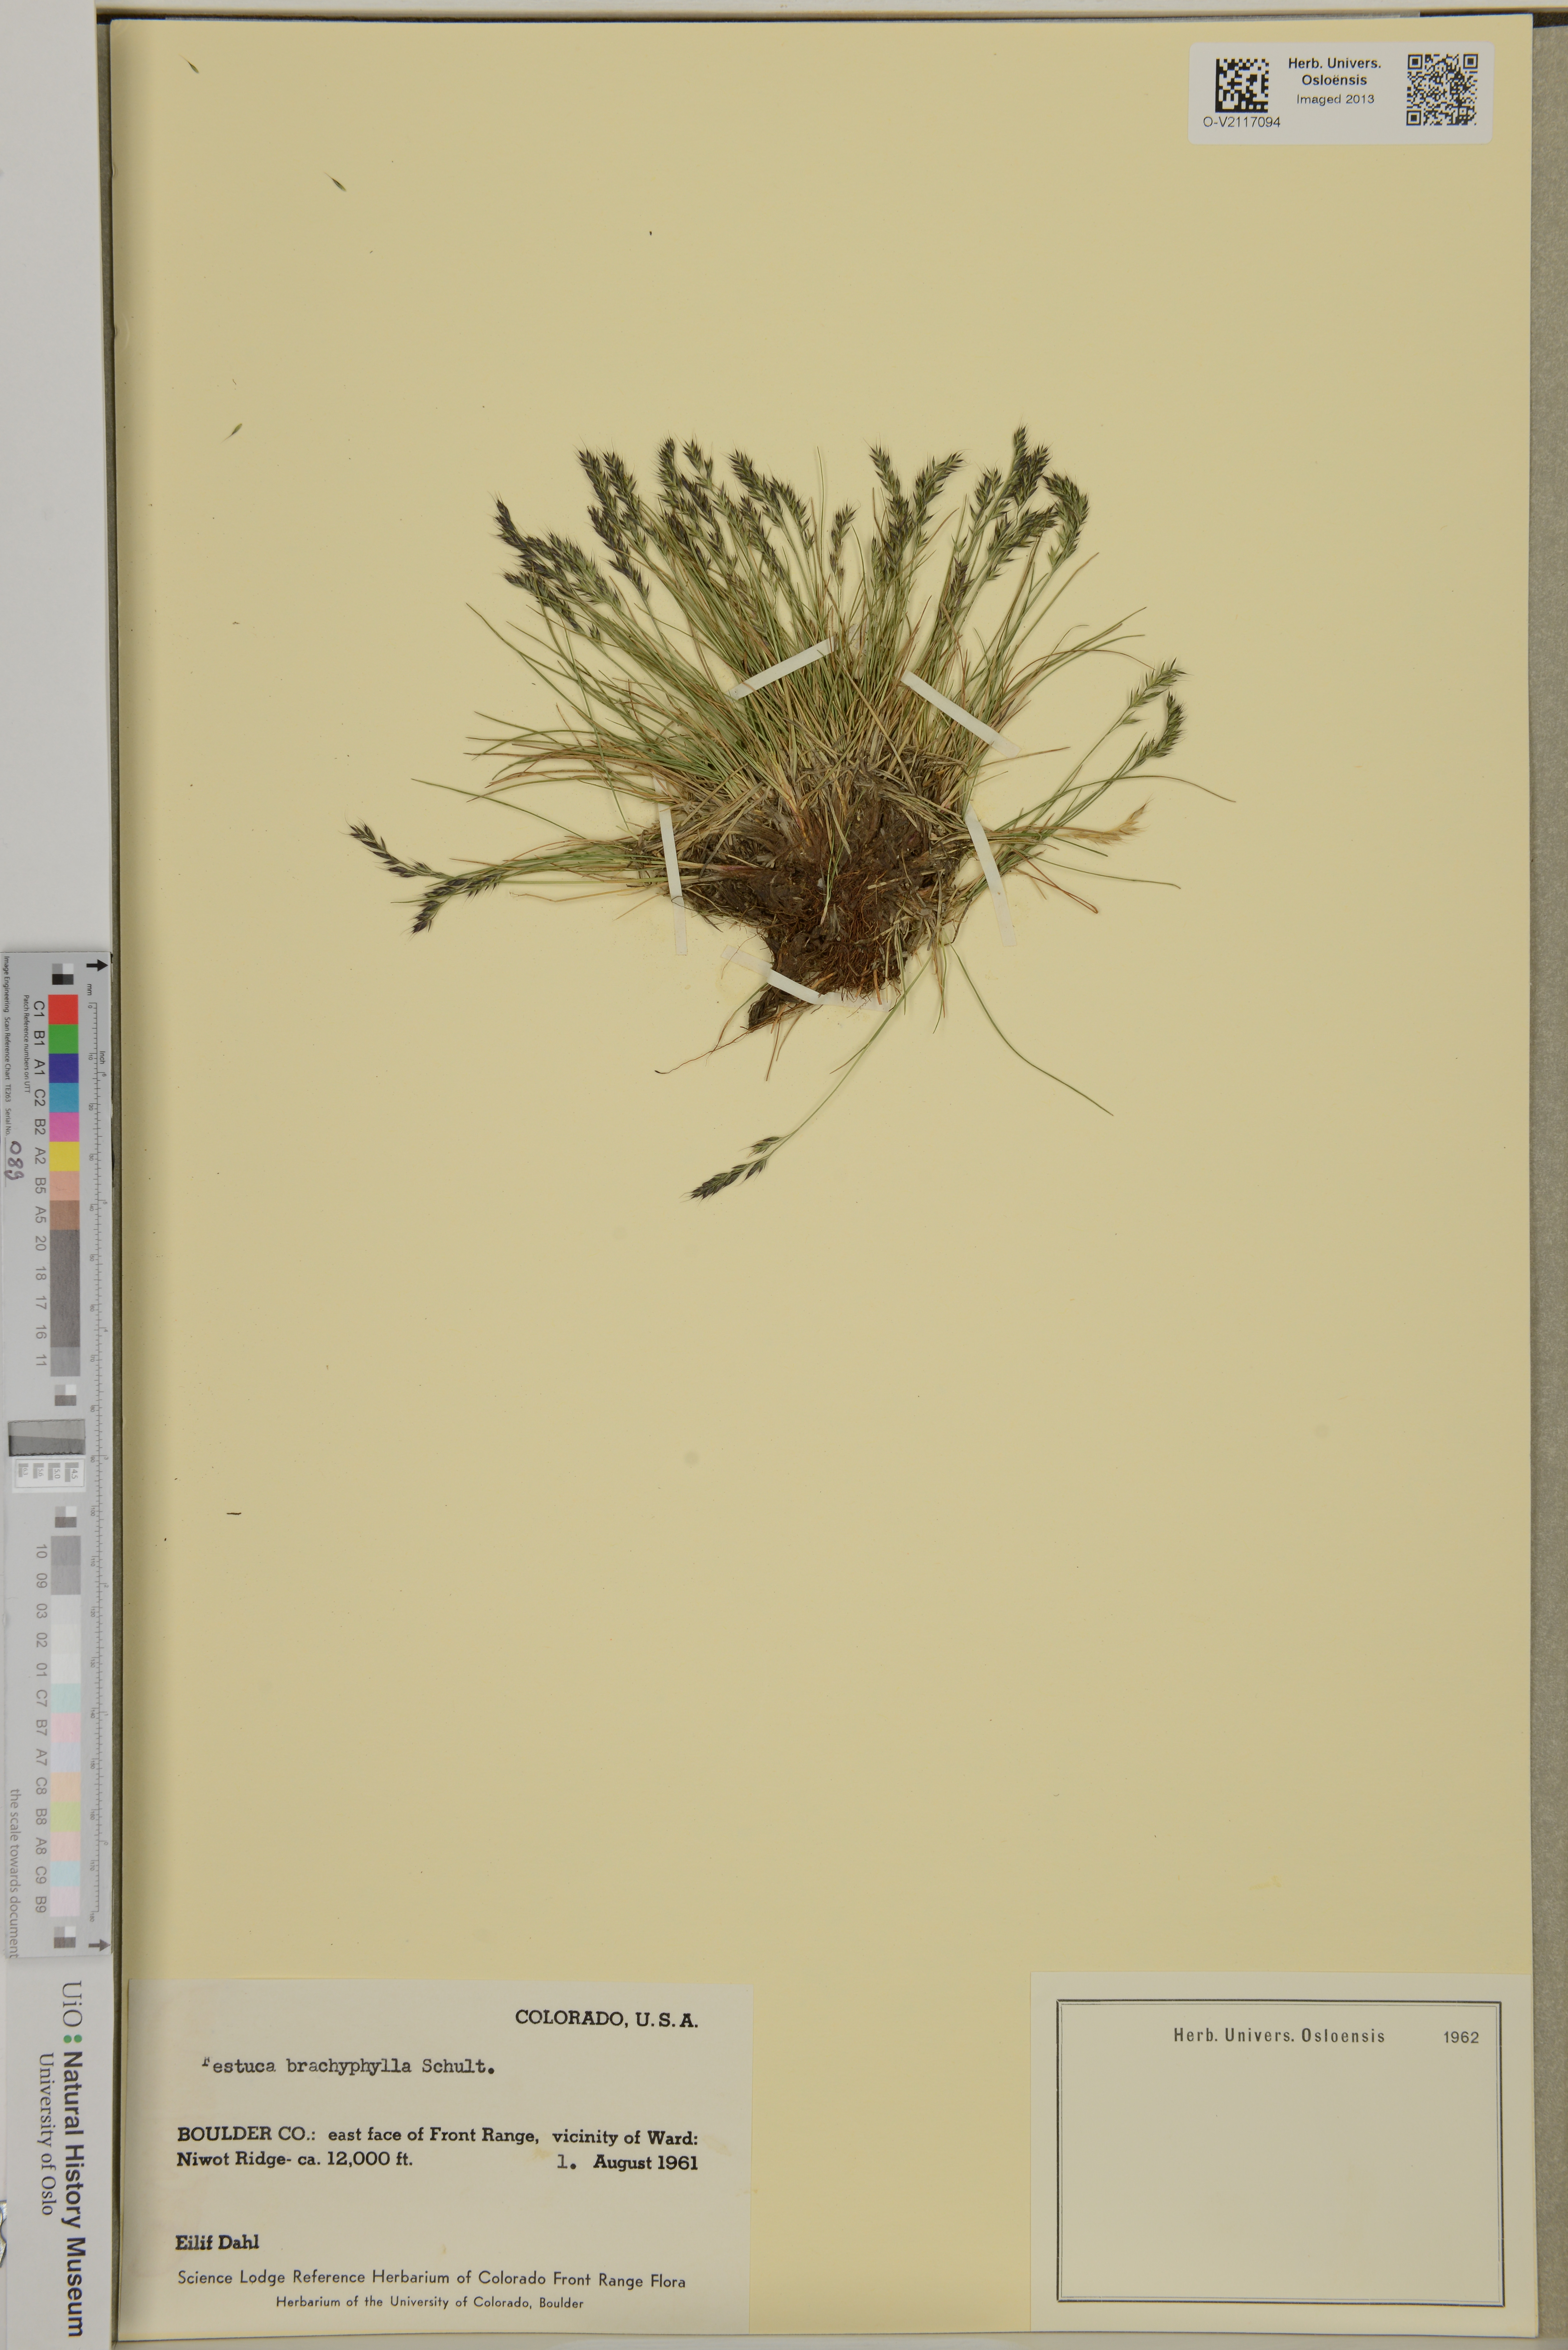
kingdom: Plantae
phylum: Tracheophyta
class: Liliopsida
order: Poales
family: Poaceae
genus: Festuca
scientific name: Festuca brachyphylla
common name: Alpine fescue
